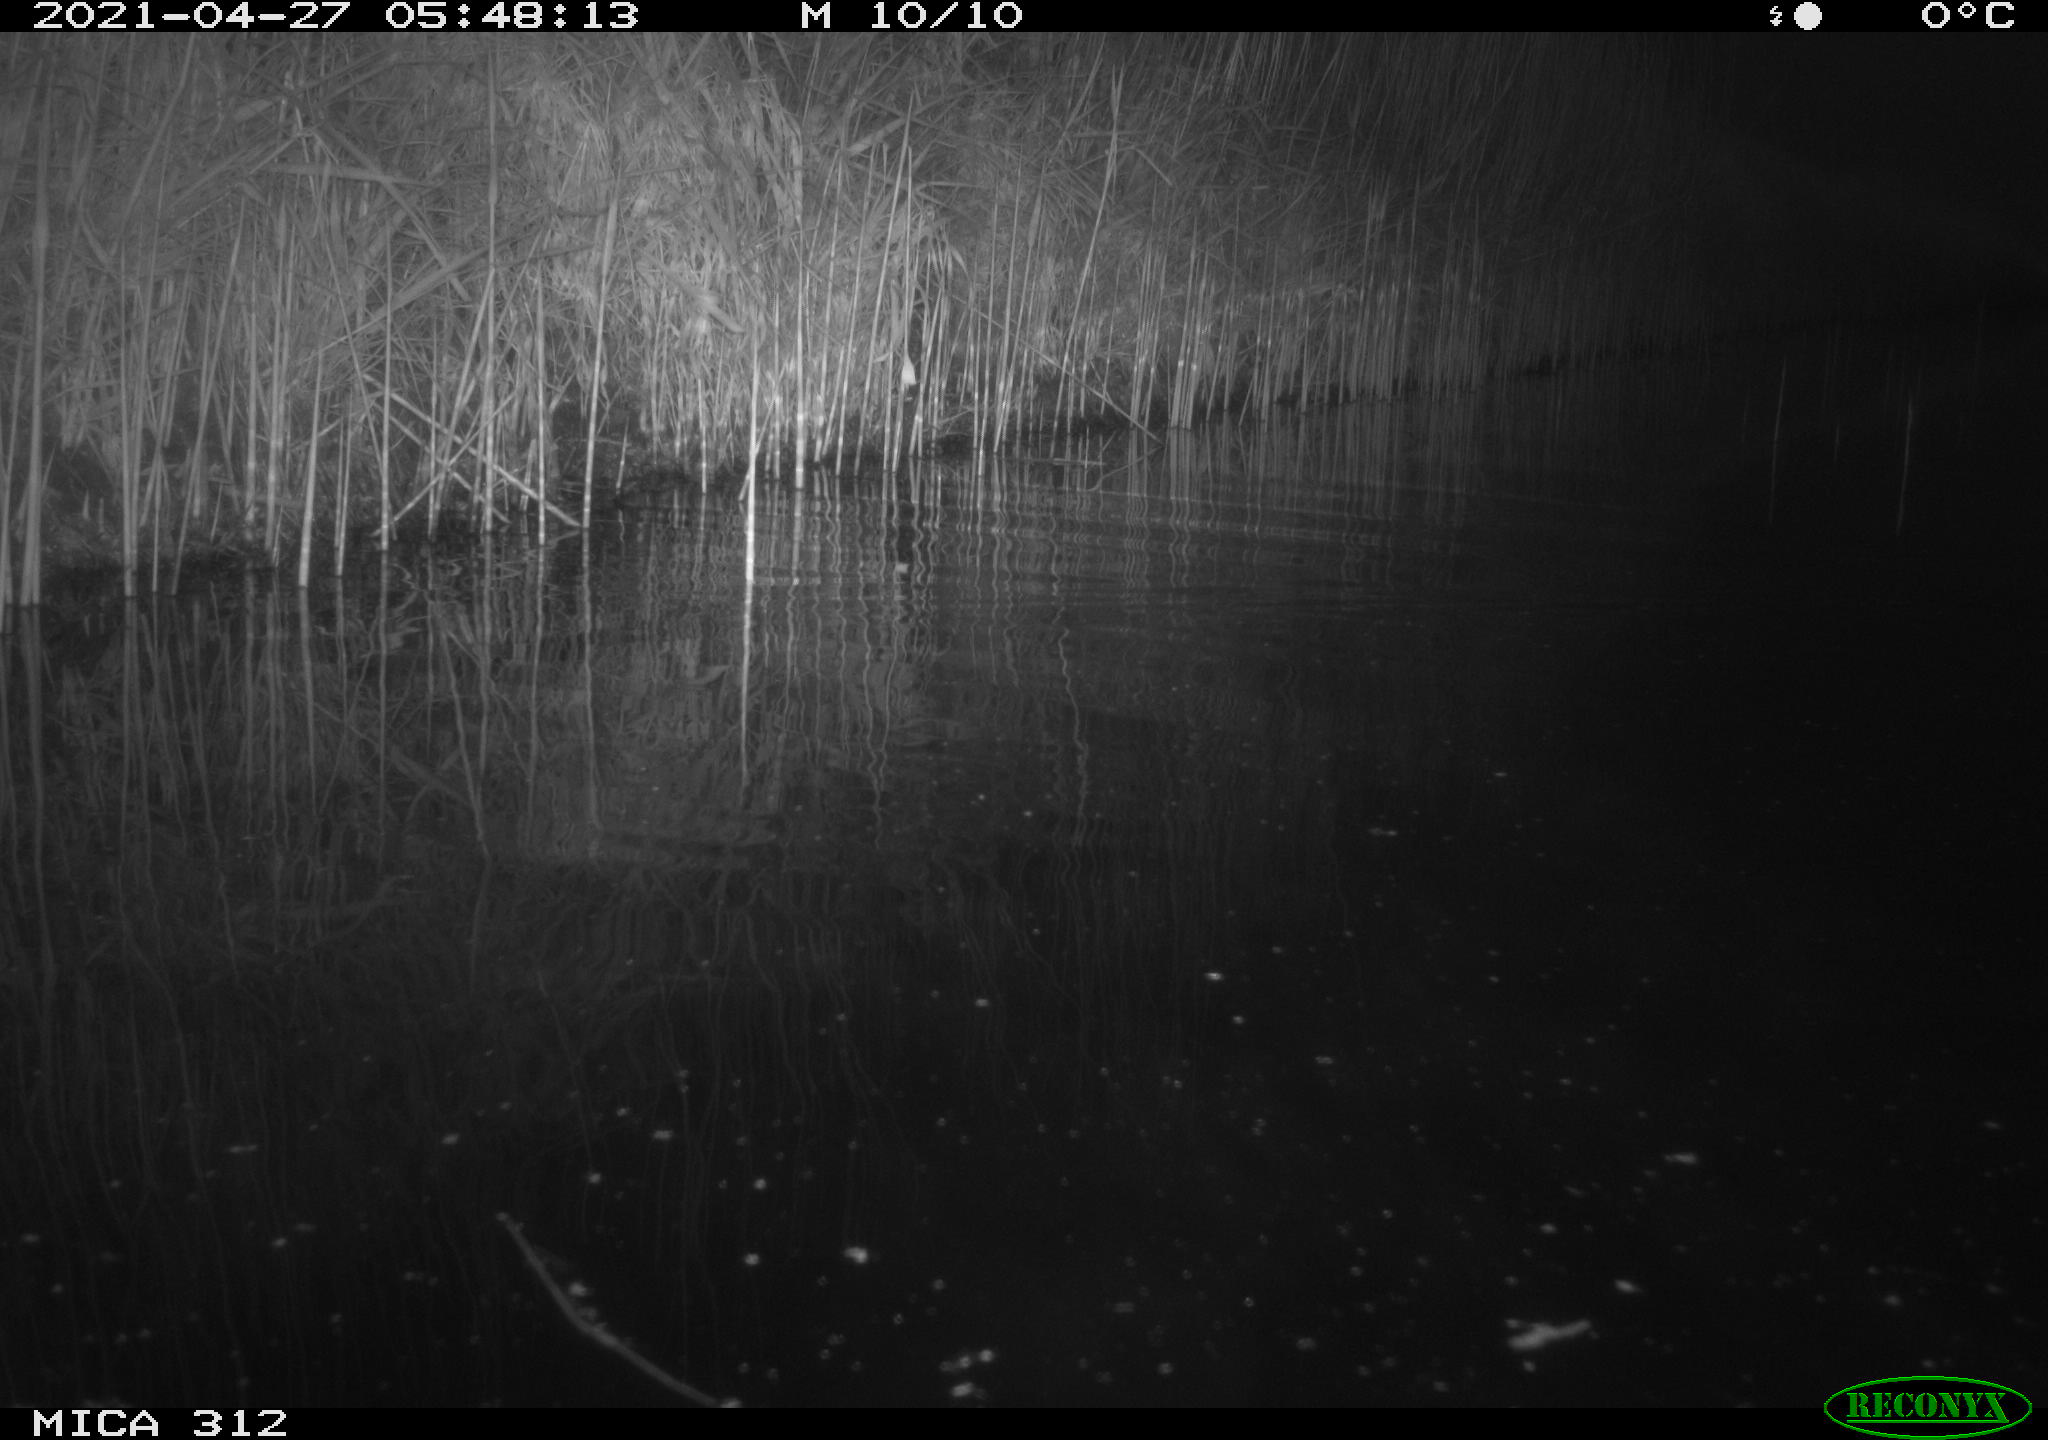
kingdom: Animalia
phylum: Chordata
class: Mammalia
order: Rodentia
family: Cricetidae
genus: Ondatra
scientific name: Ondatra zibethicus
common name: Muskrat
